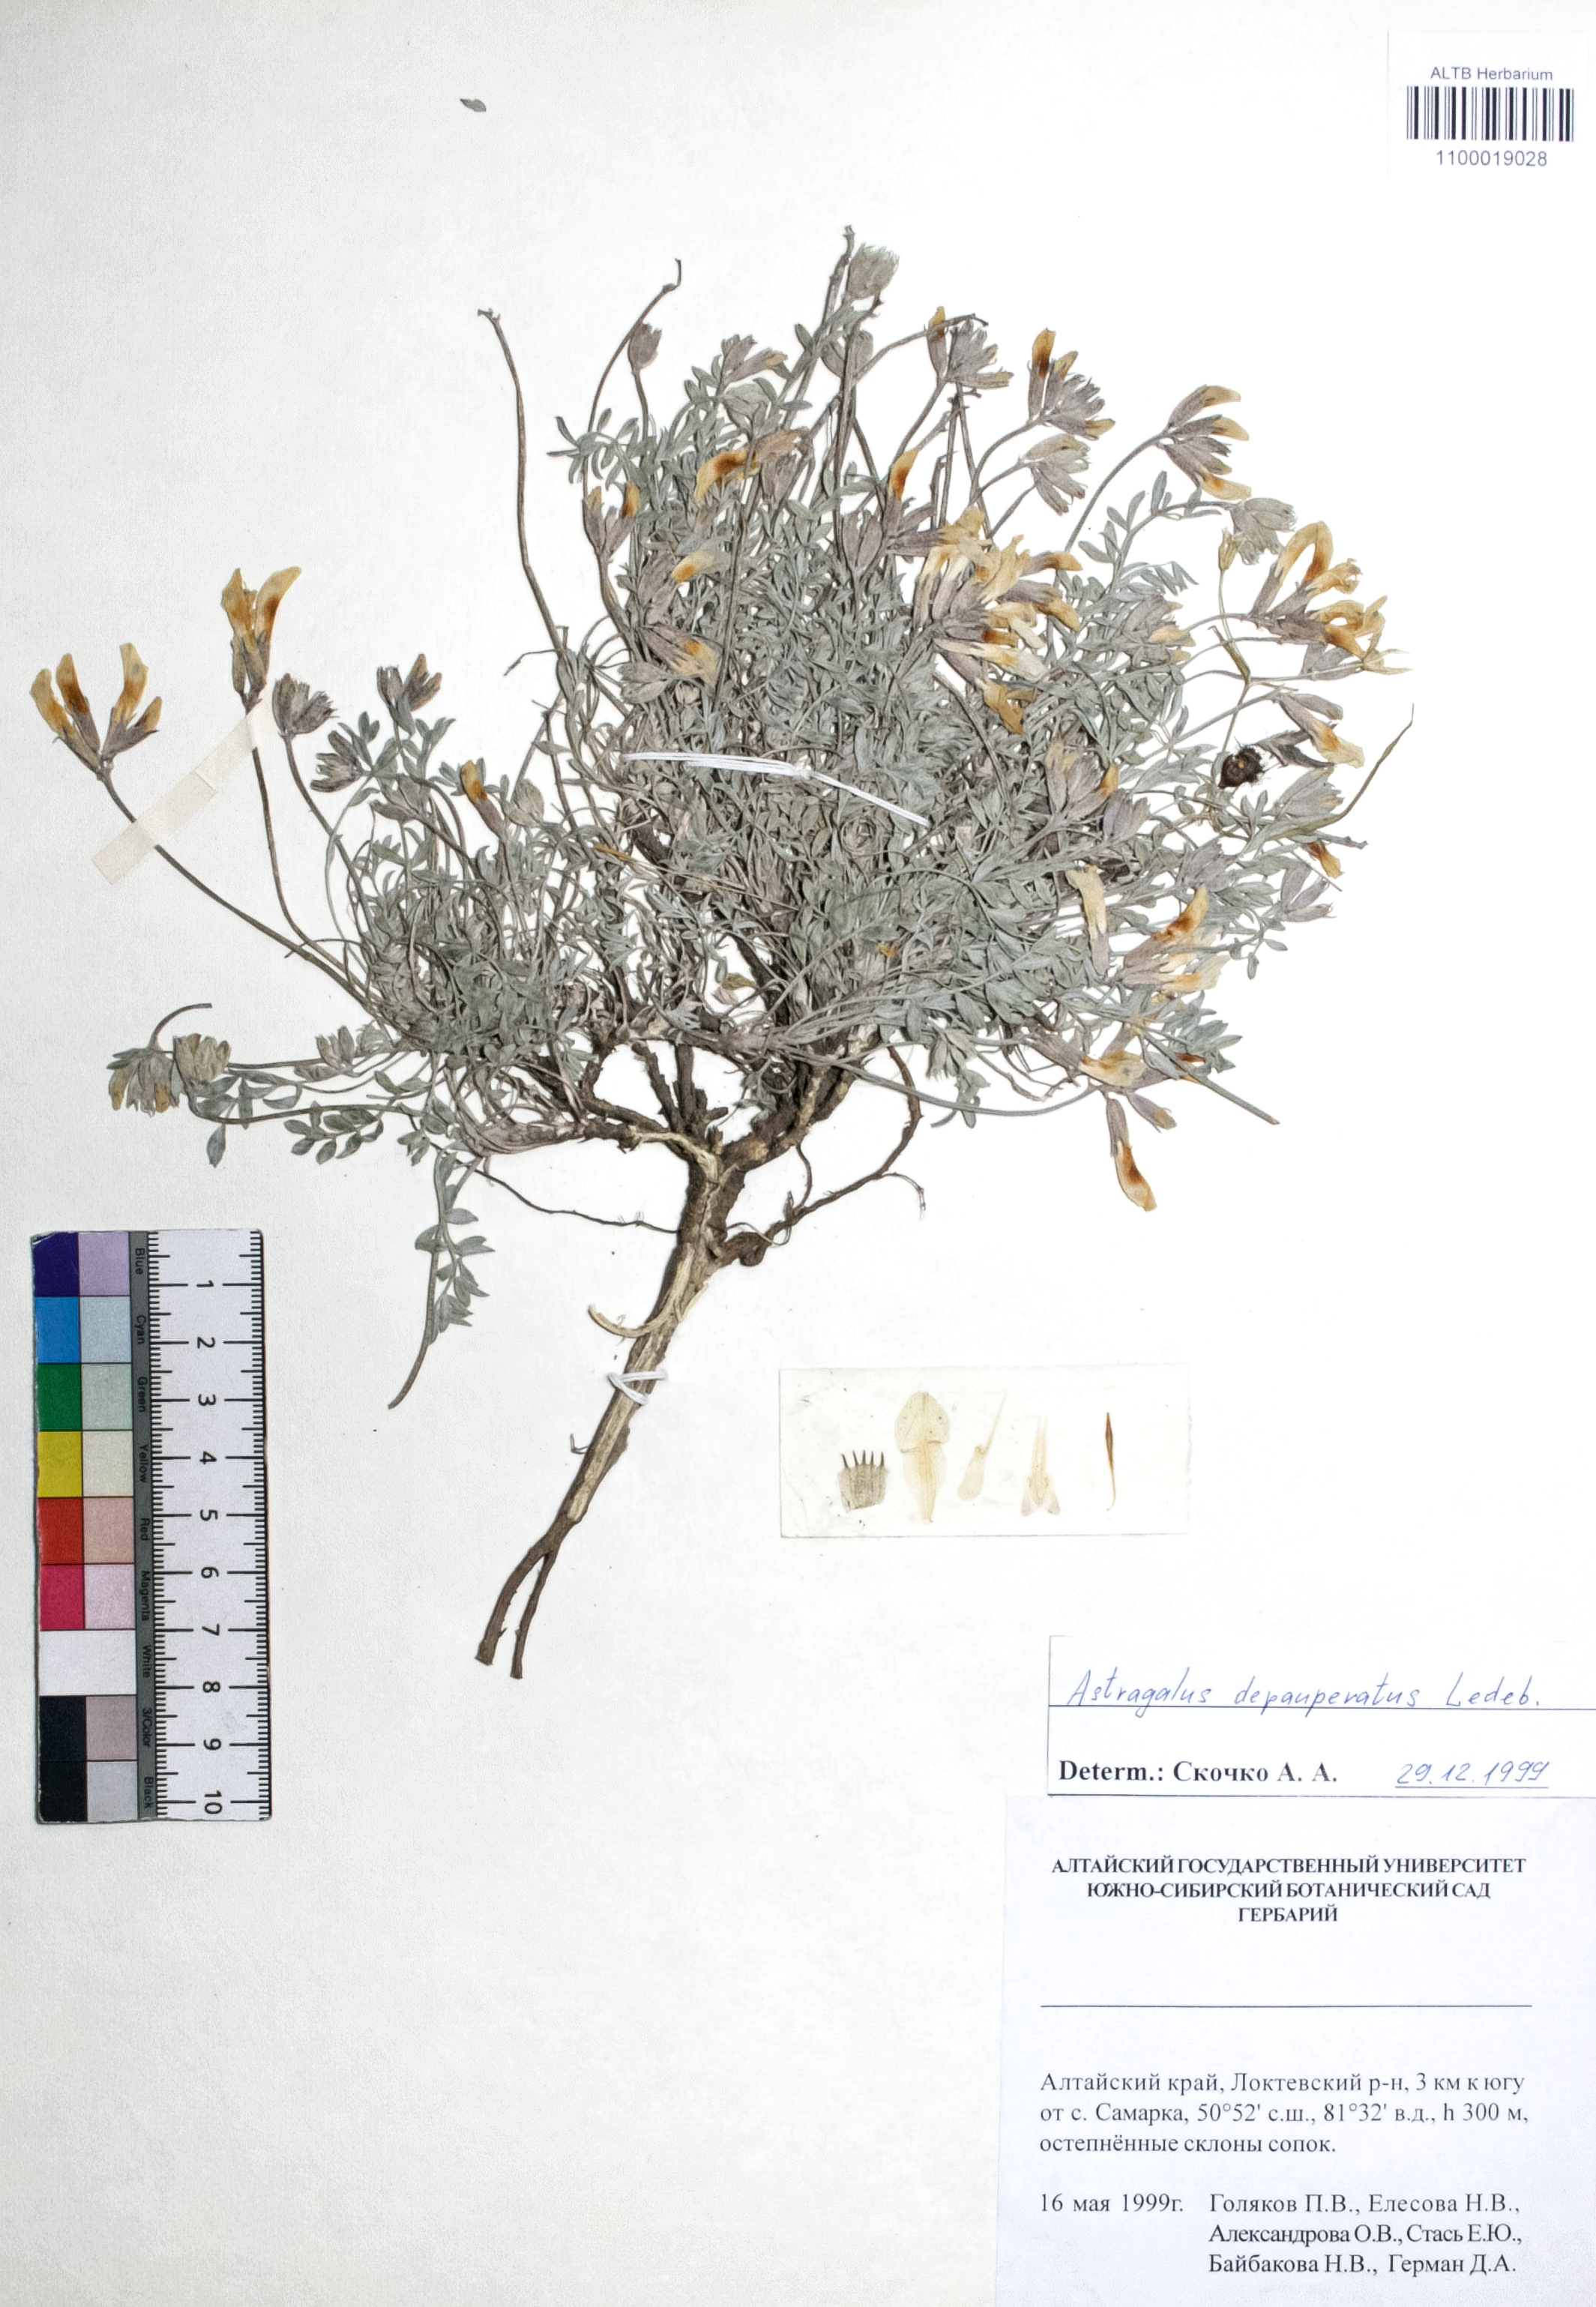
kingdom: Plantae
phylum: Tracheophyta
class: Magnoliopsida
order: Fabales
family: Fabaceae
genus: Astragalus
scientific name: Astragalus depauperatus
